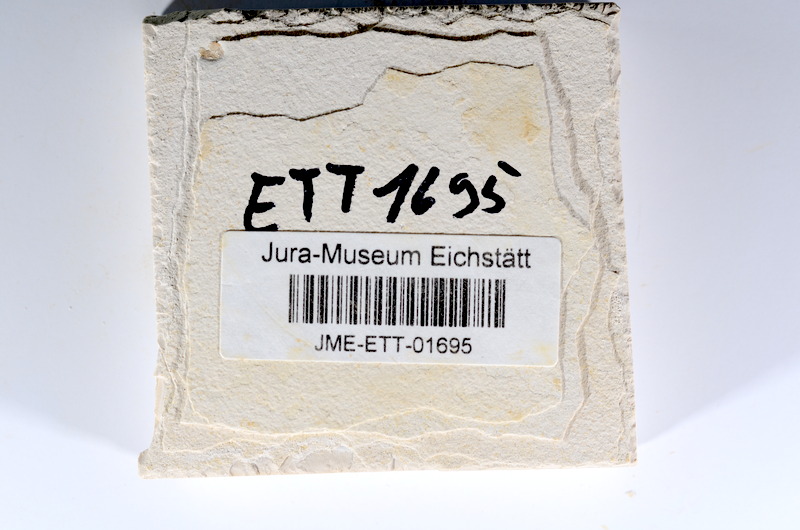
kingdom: Animalia
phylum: Chordata
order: Salmoniformes
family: Orthogonikleithridae
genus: Orthogonikleithrus
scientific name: Orthogonikleithrus hoelli
